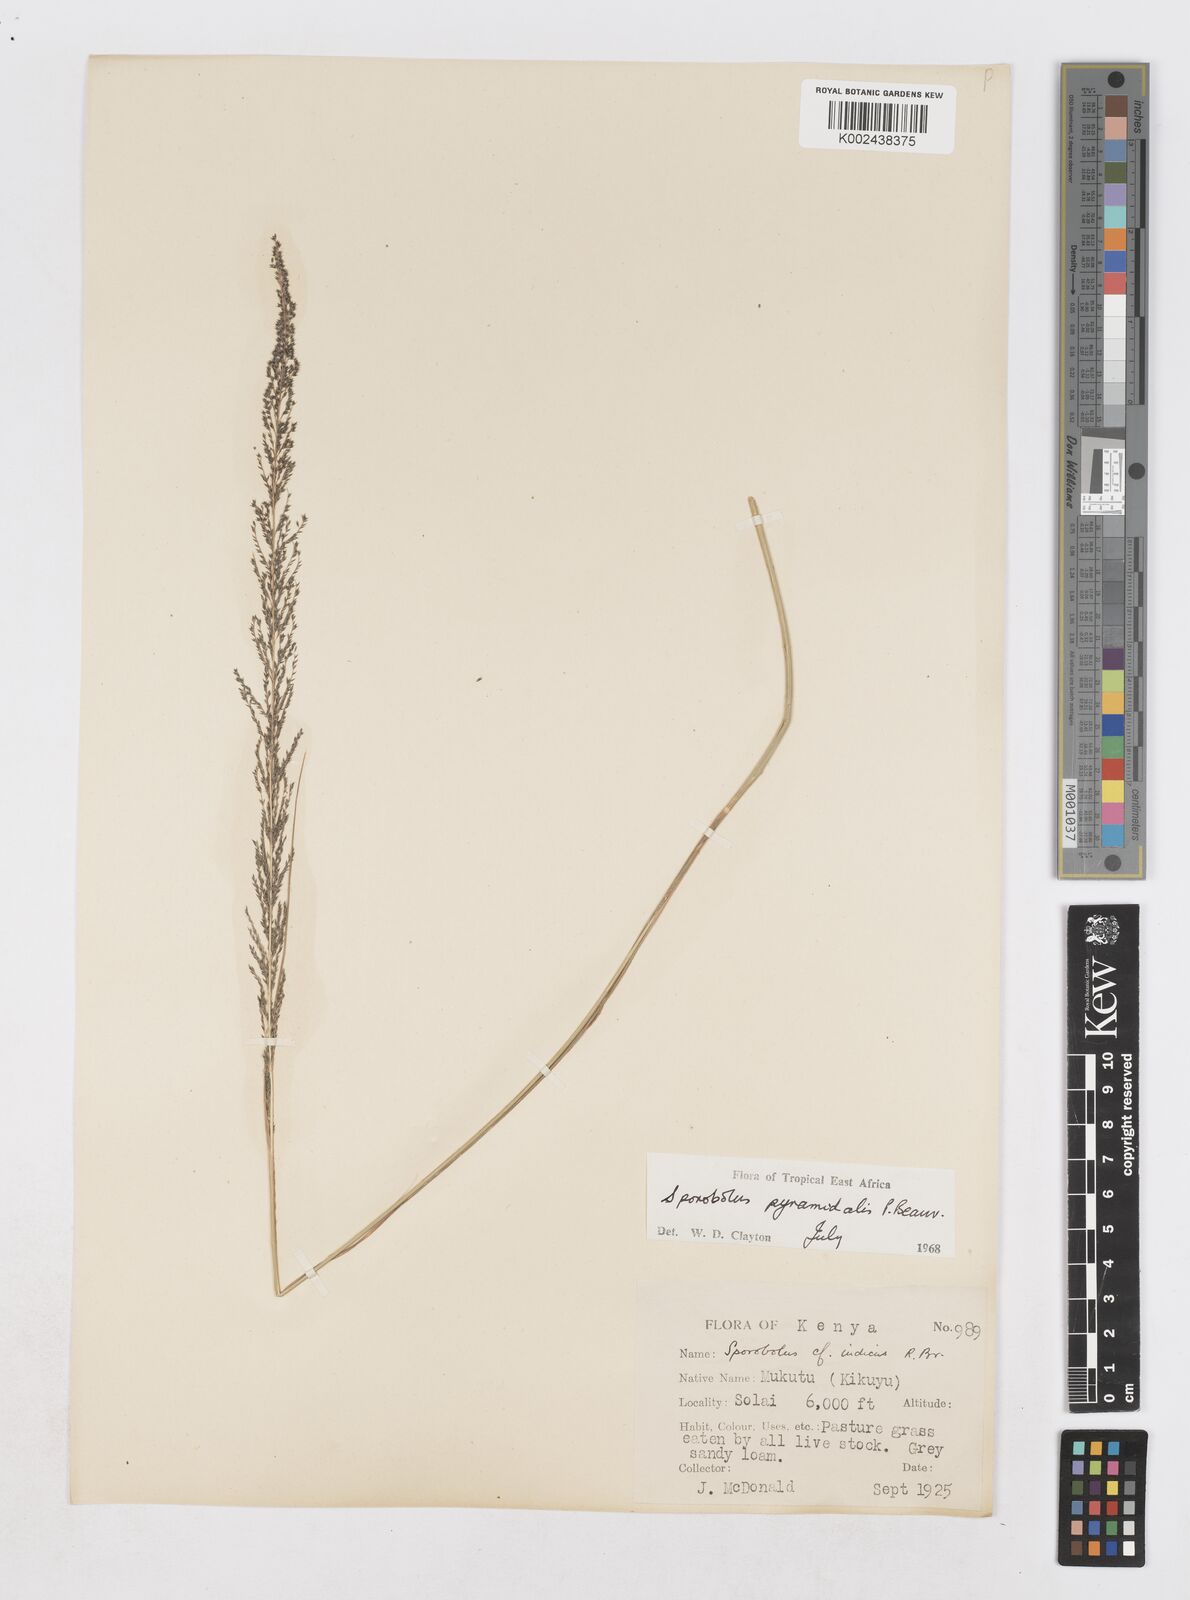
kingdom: Plantae
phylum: Tracheophyta
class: Liliopsida
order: Poales
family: Poaceae
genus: Sporobolus
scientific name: Sporobolus pyramidalis
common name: West indian dropseed
